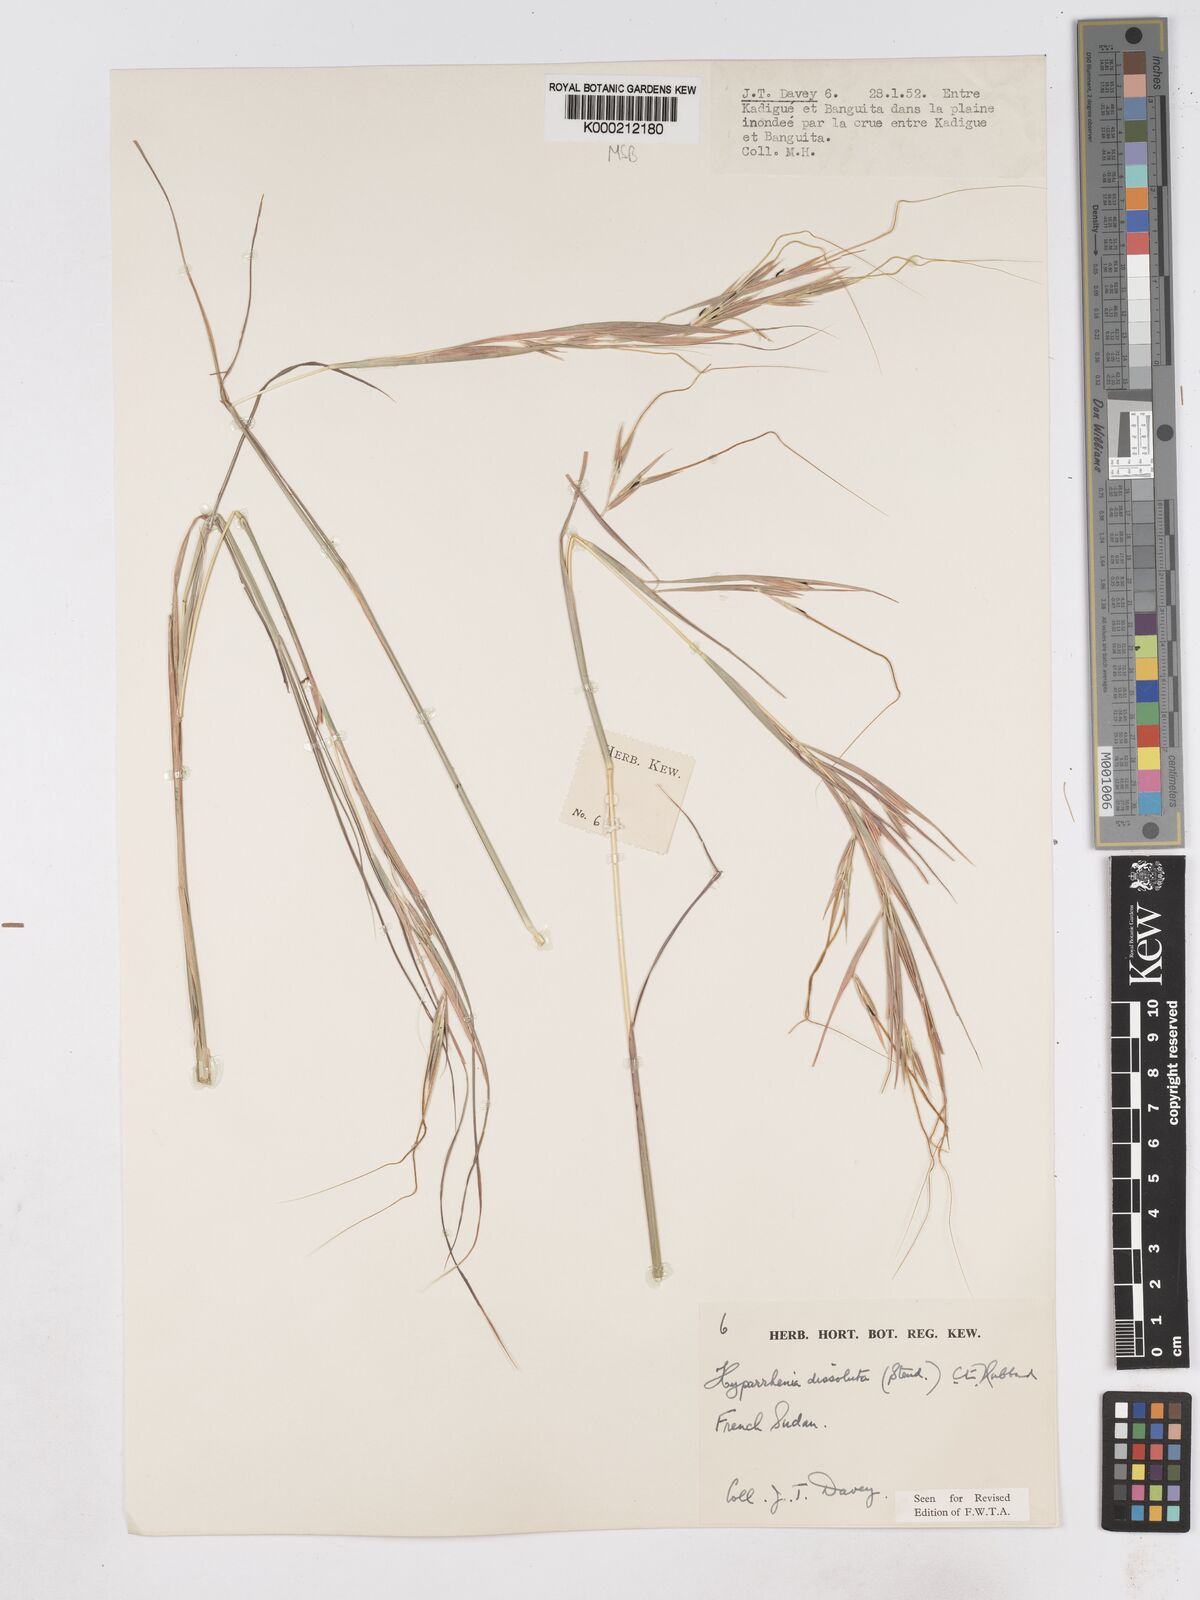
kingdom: Plantae
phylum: Tracheophyta
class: Liliopsida
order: Poales
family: Poaceae
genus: Hyperthelia
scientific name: Hyperthelia dissoluta
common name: Yellow thatching grass
